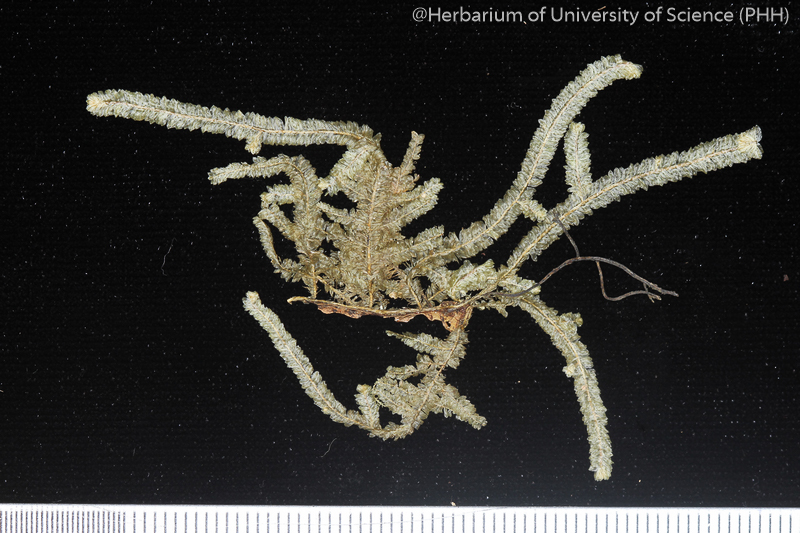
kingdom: Plantae
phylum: Bryophyta
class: Bryopsida
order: Hypnales
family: Neckeraceae
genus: Planicladium
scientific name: Planicladium semperianum
